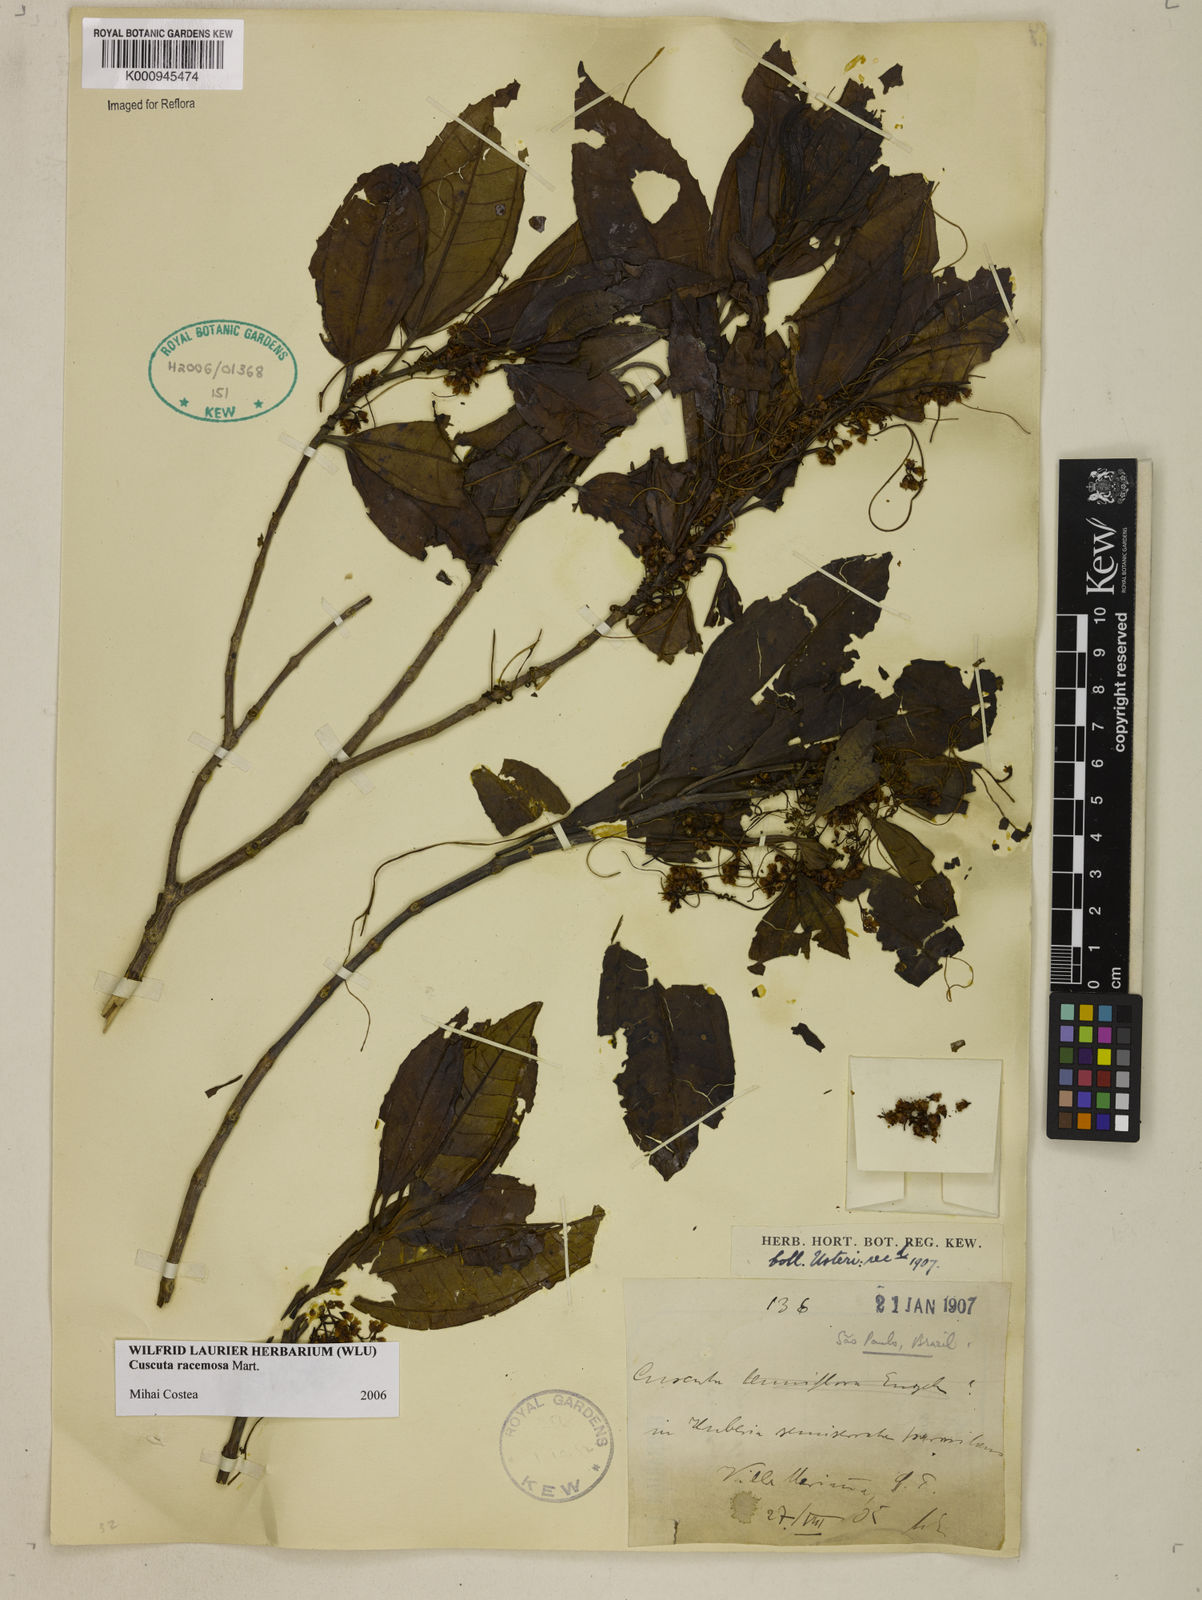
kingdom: Plantae
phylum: Tracheophyta
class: Magnoliopsida
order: Solanales
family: Convolvulaceae
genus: Cuscuta
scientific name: Cuscuta racemosa
